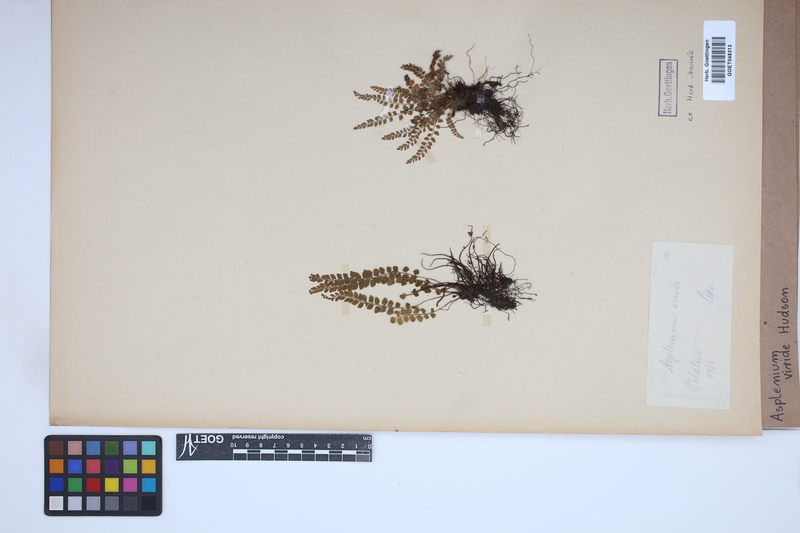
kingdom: Plantae
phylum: Tracheophyta
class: Polypodiopsida
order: Polypodiales
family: Aspleniaceae
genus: Asplenium
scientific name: Asplenium viride
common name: Green spleenwort
